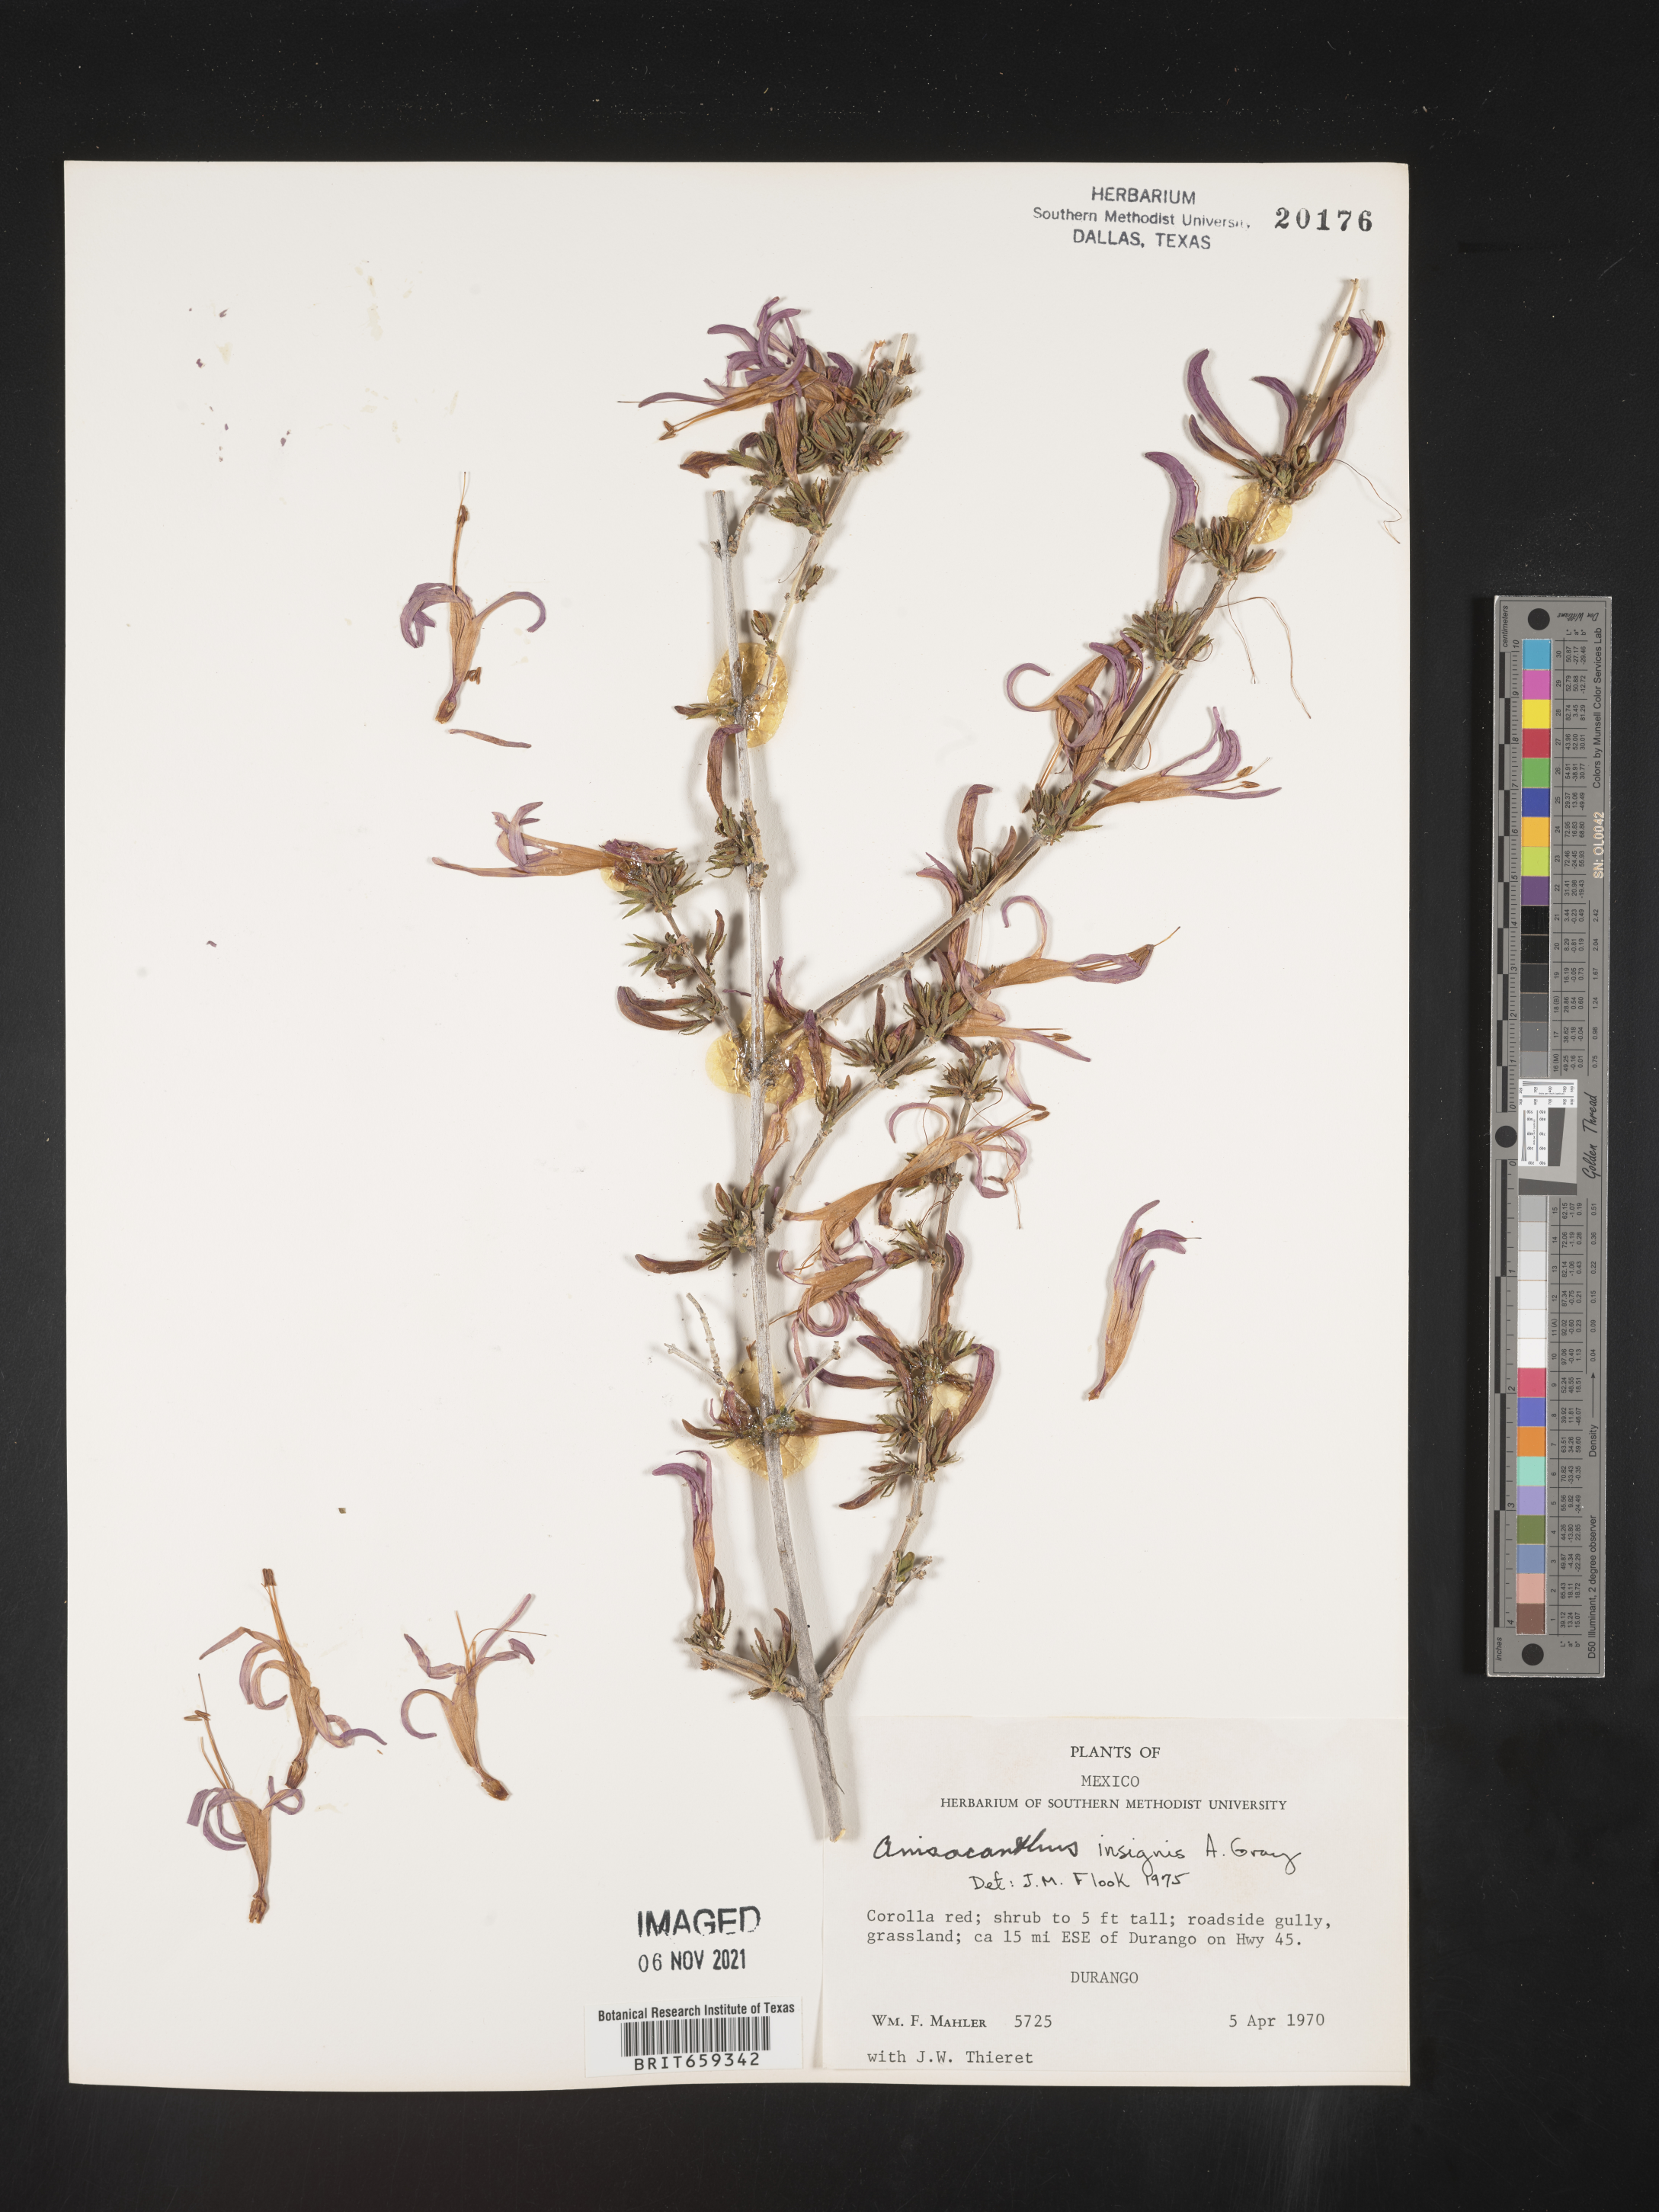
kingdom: Plantae
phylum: Tracheophyta
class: Magnoliopsida
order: Lamiales
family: Acanthaceae
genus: Anisacanthus
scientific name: Anisacanthus
